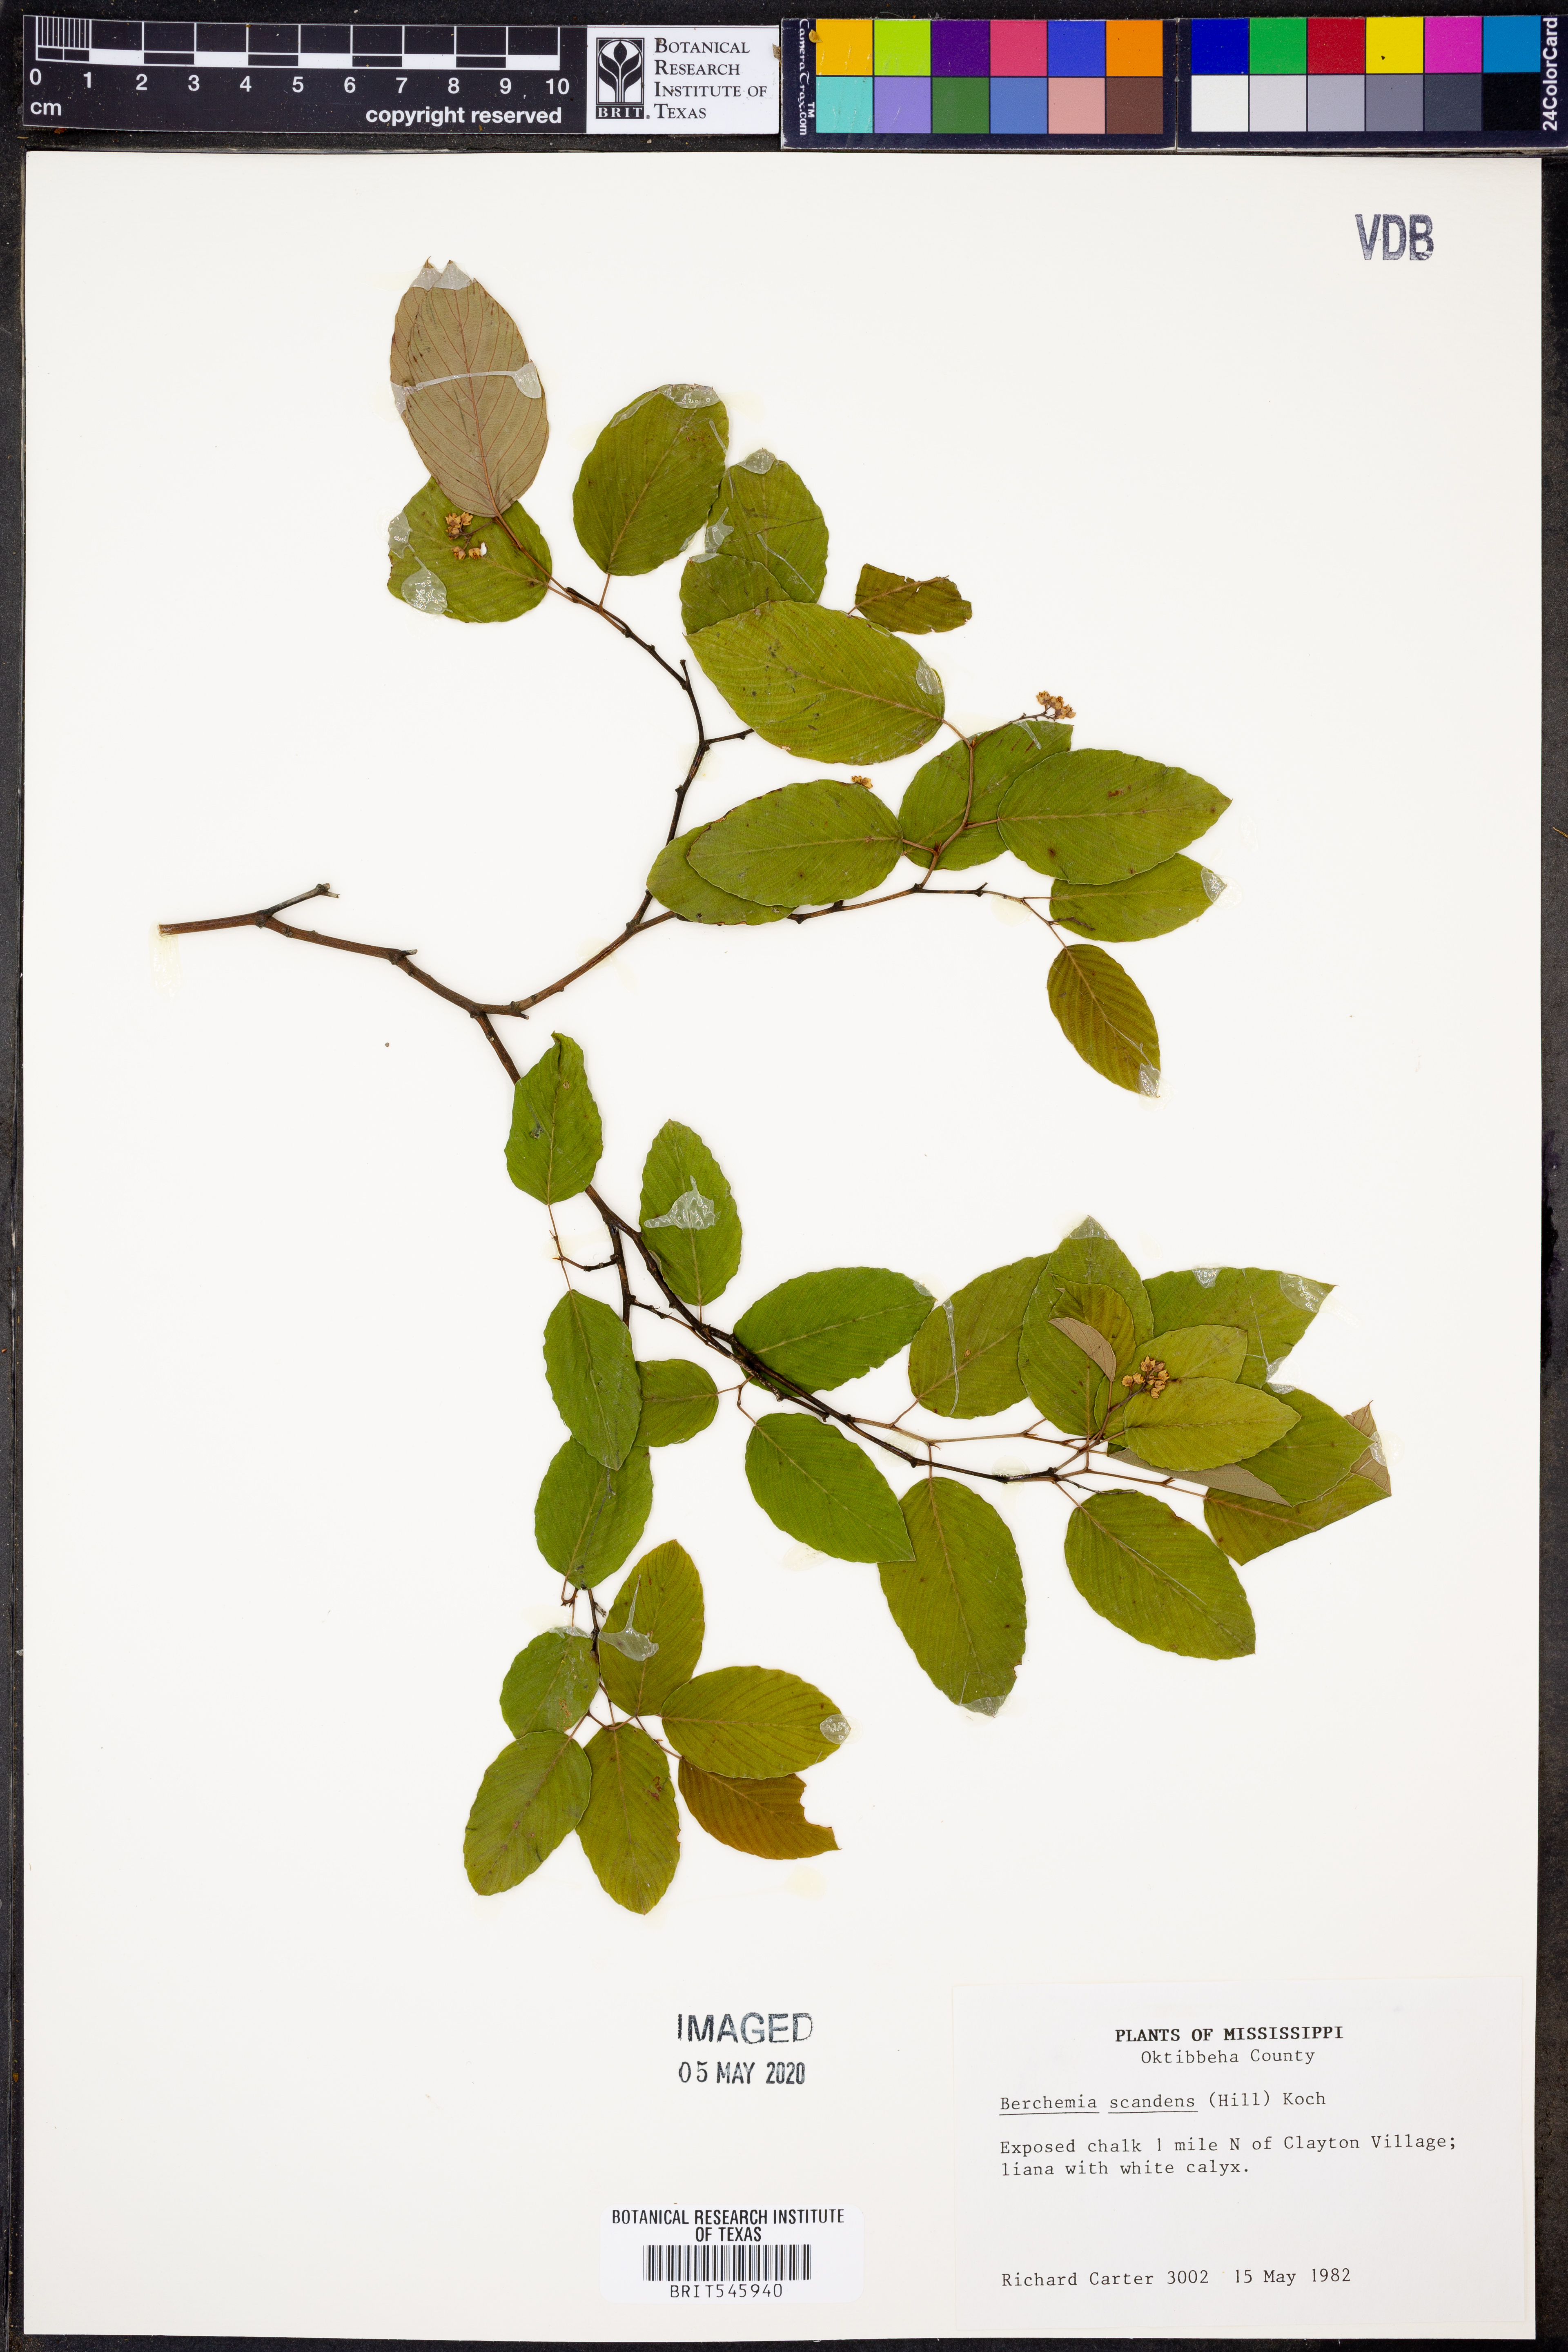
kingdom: Plantae
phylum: Tracheophyta
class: Magnoliopsida
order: Rosales
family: Rhamnaceae
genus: Berchemia
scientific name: Berchemia scandens
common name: Supplejack
